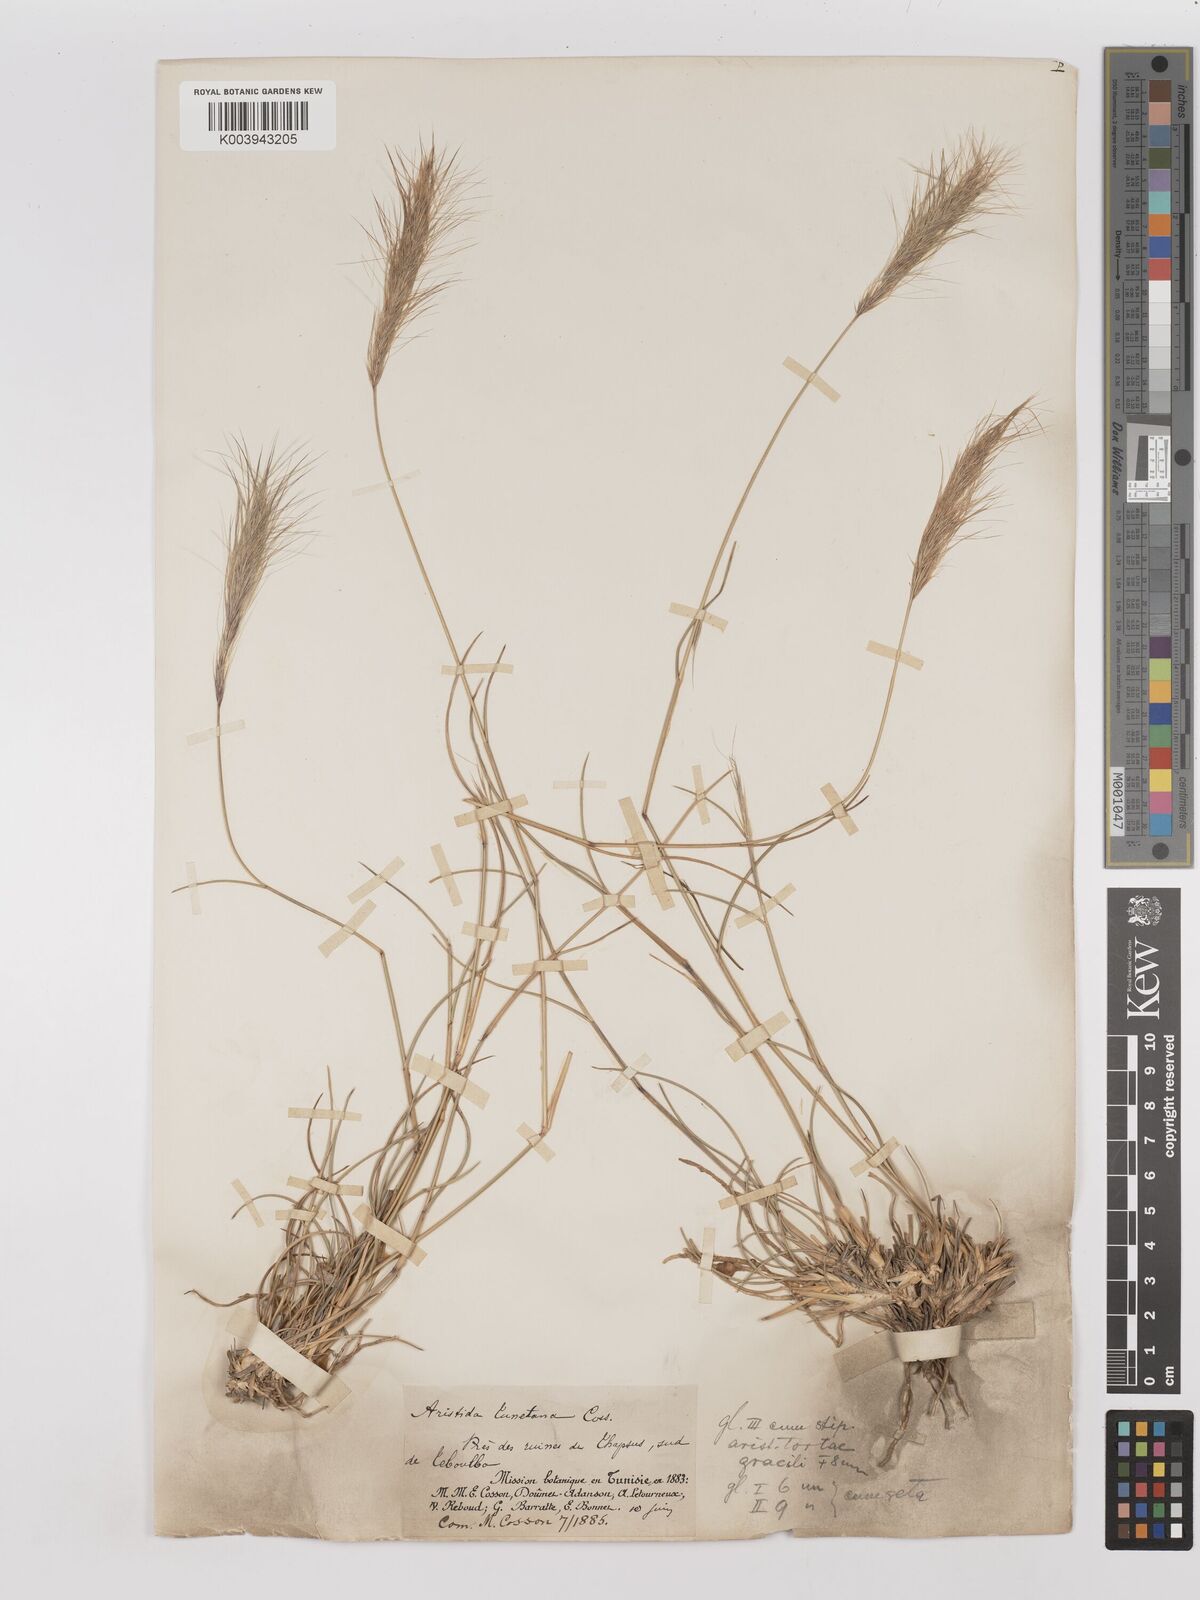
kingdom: Plantae
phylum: Tracheophyta
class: Liliopsida
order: Poales
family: Poaceae
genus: Aristida
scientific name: Aristida congesta
